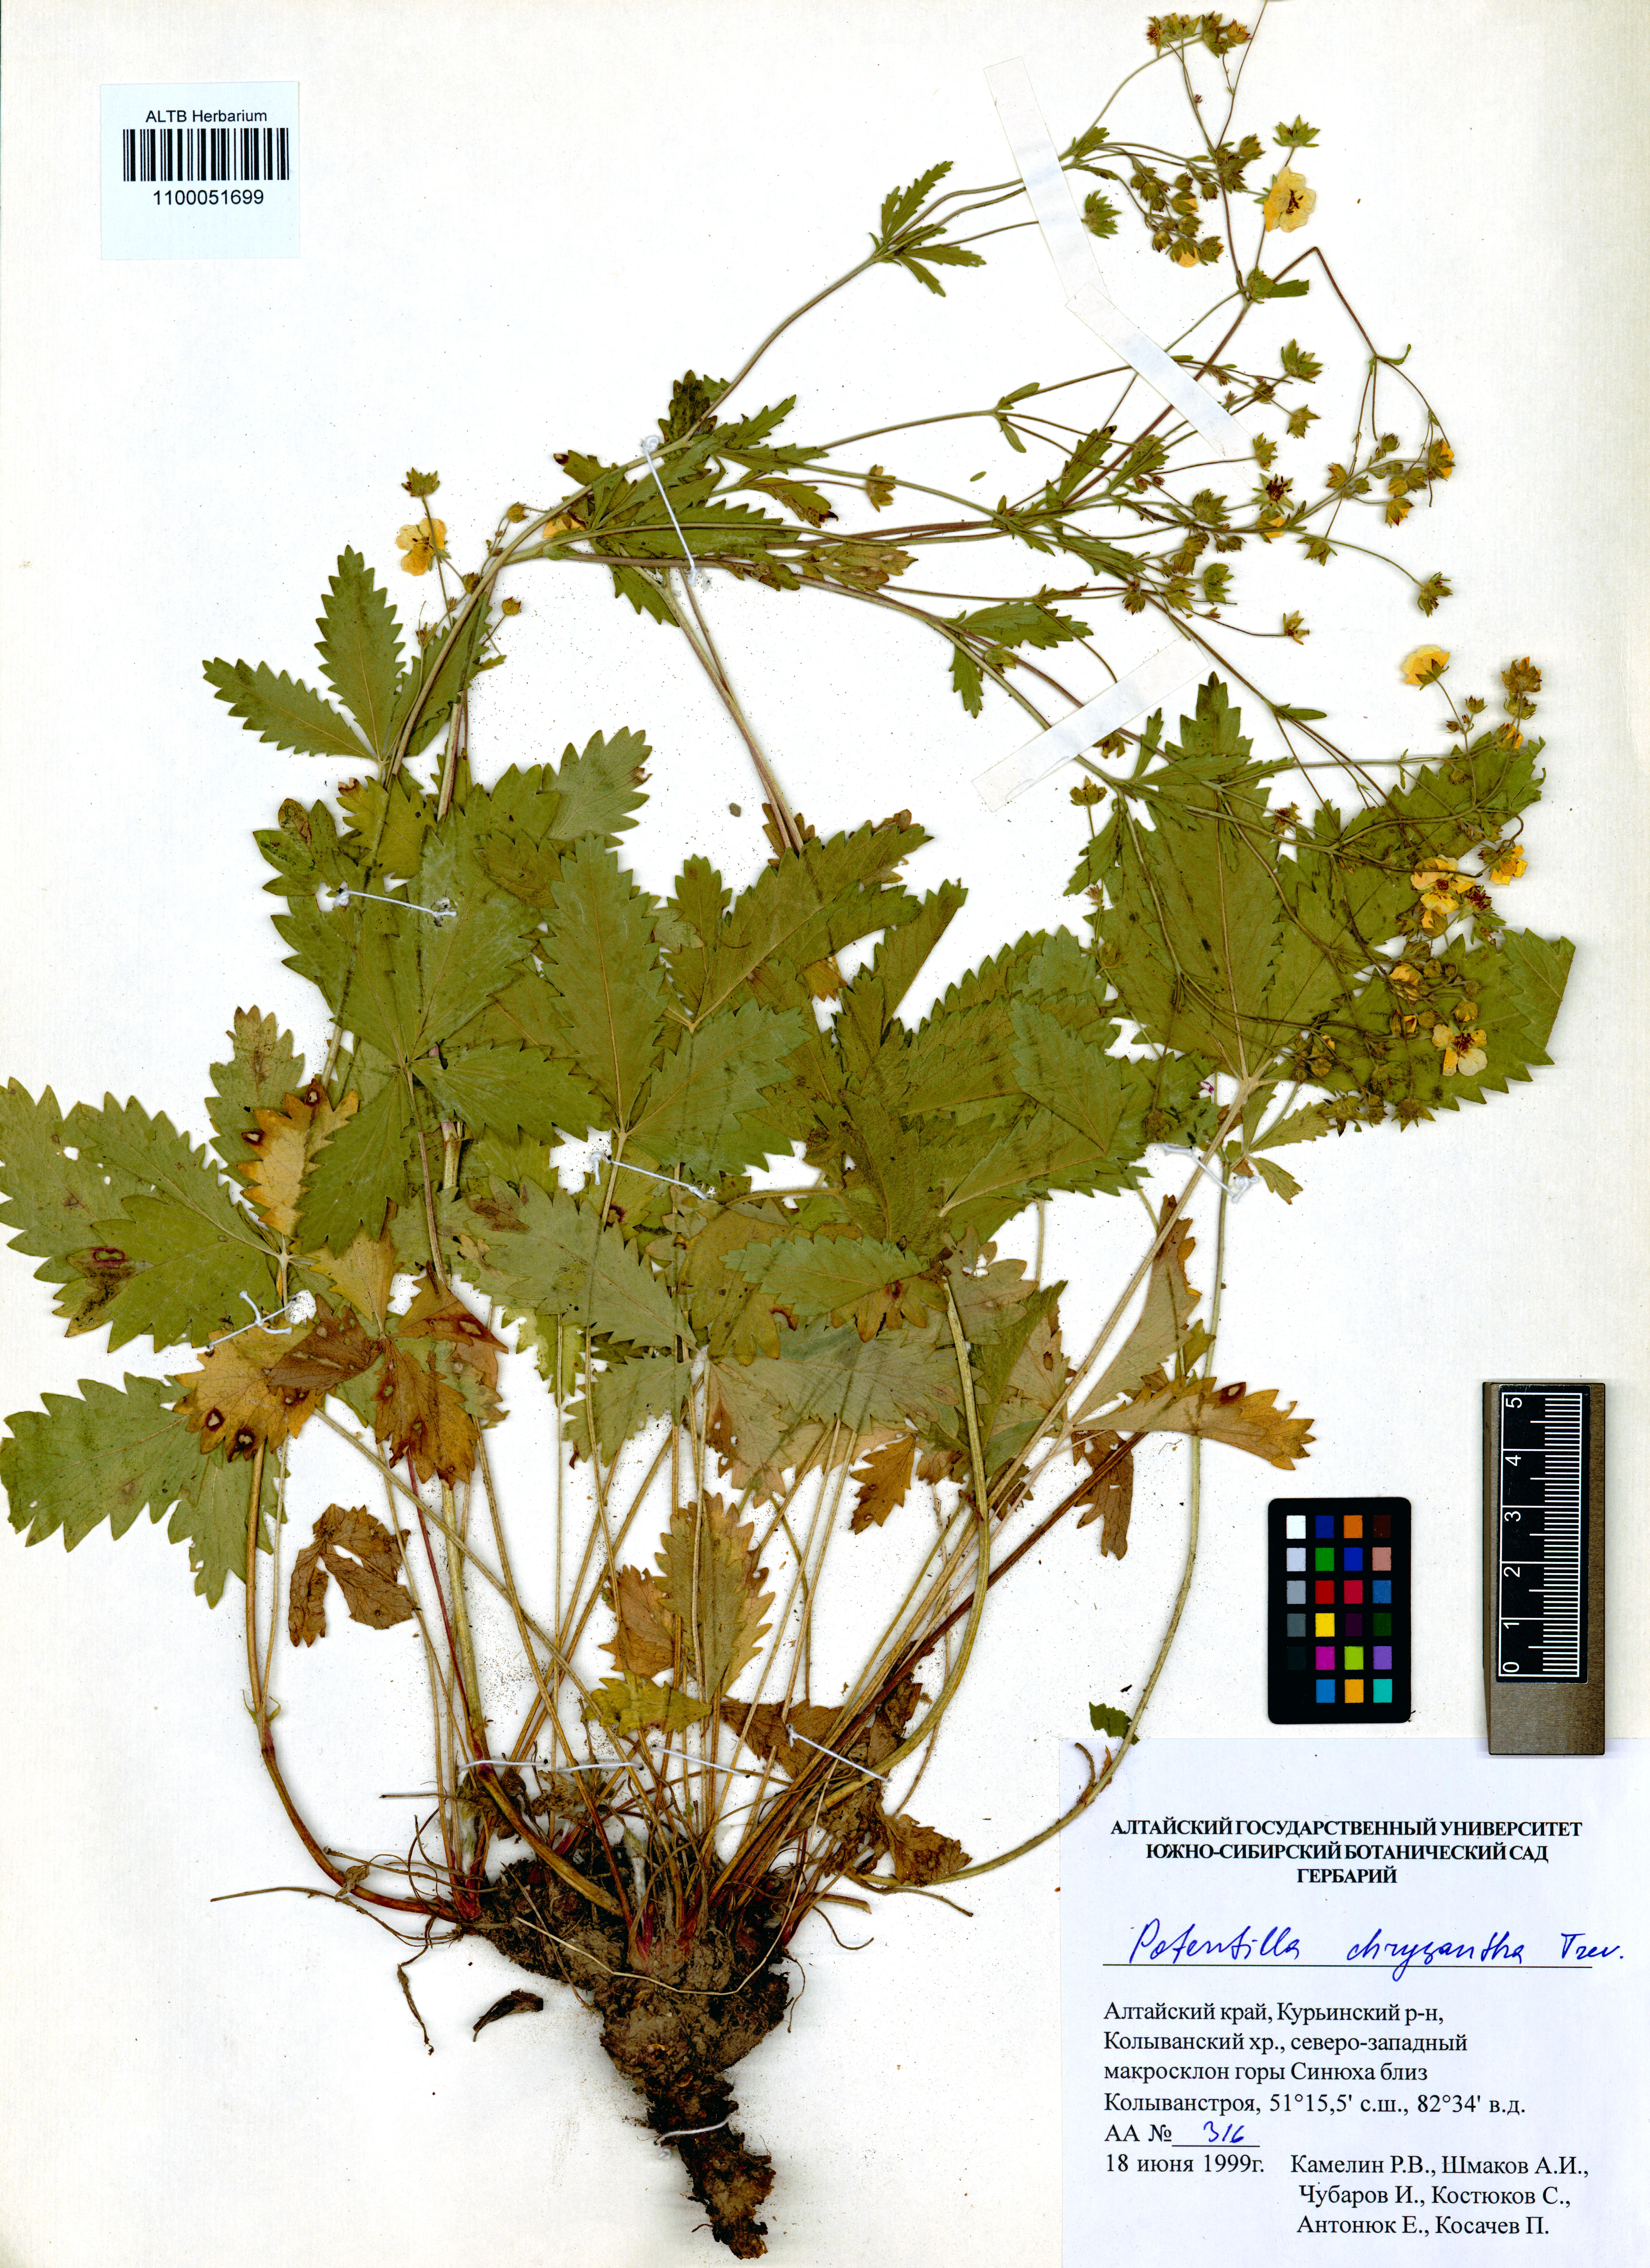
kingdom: Plantae
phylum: Tracheophyta
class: Magnoliopsida
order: Rosales
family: Rosaceae
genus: Potentilla
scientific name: Potentilla chrysantha
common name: Thuringian cinquefoil
